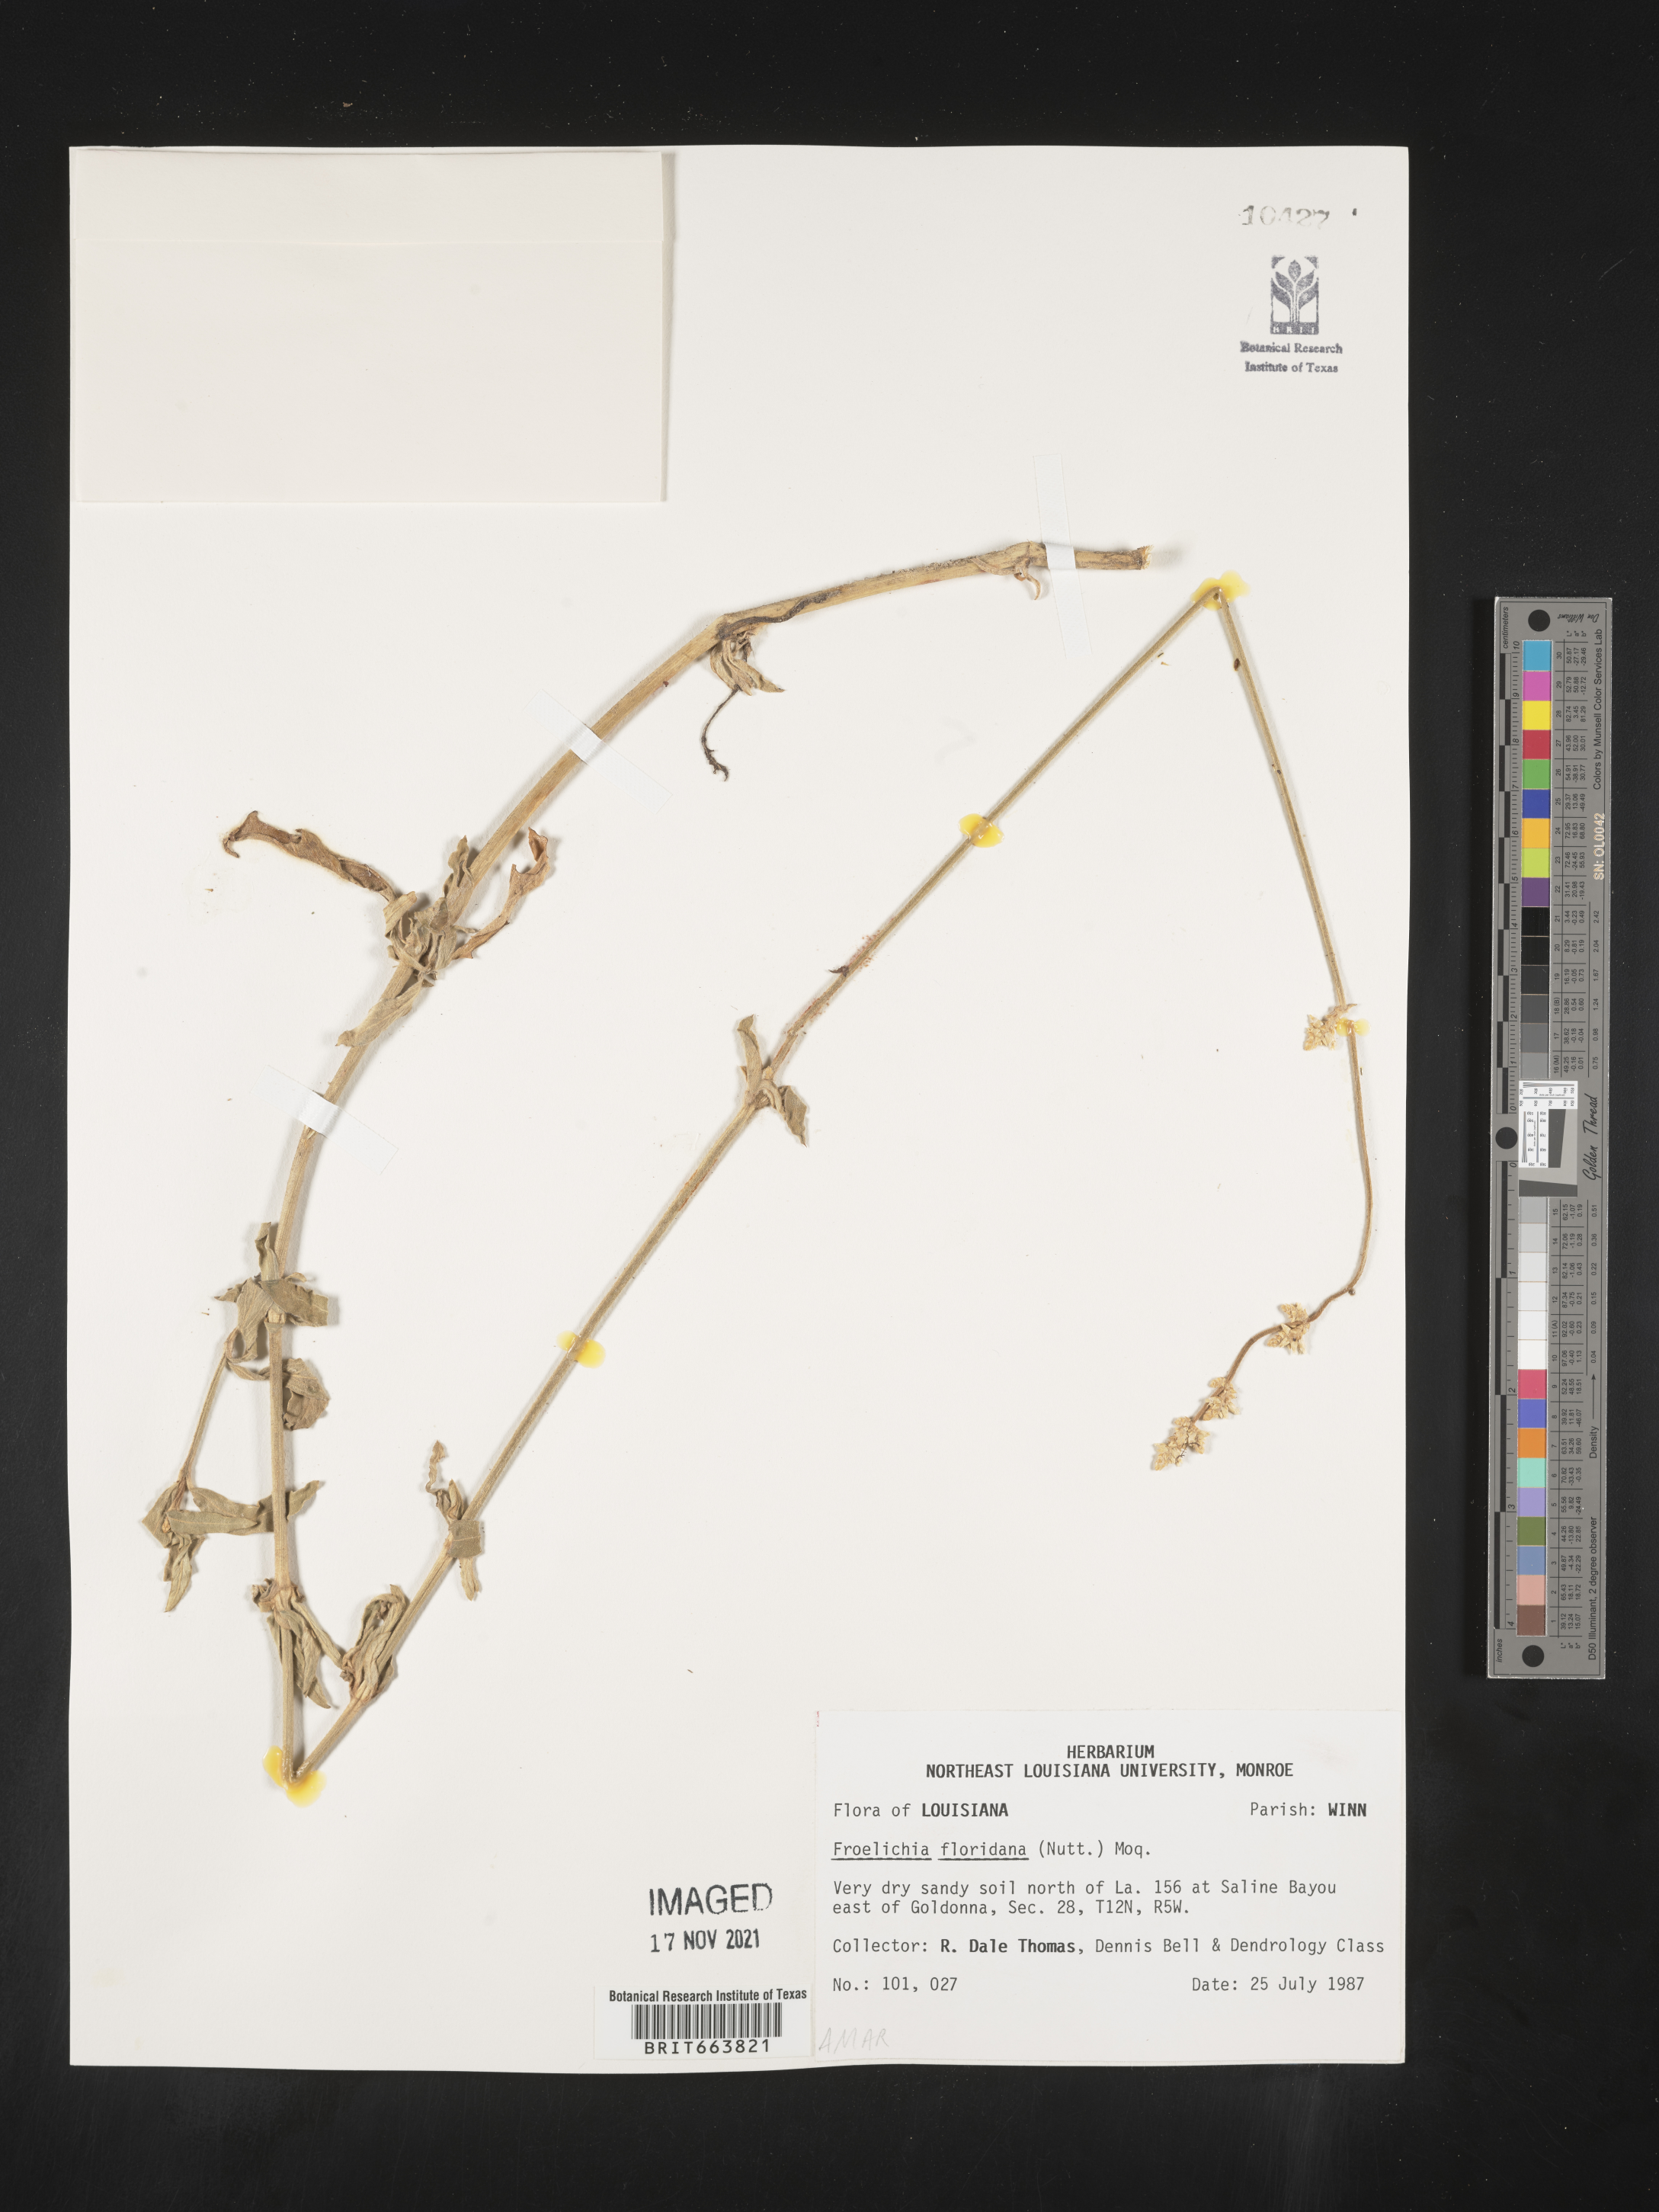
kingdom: Plantae
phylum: Tracheophyta
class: Magnoliopsida
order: Caryophyllales
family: Amaranthaceae
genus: Froelichia
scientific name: Froelichia floridana
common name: Florida snake-cotton
